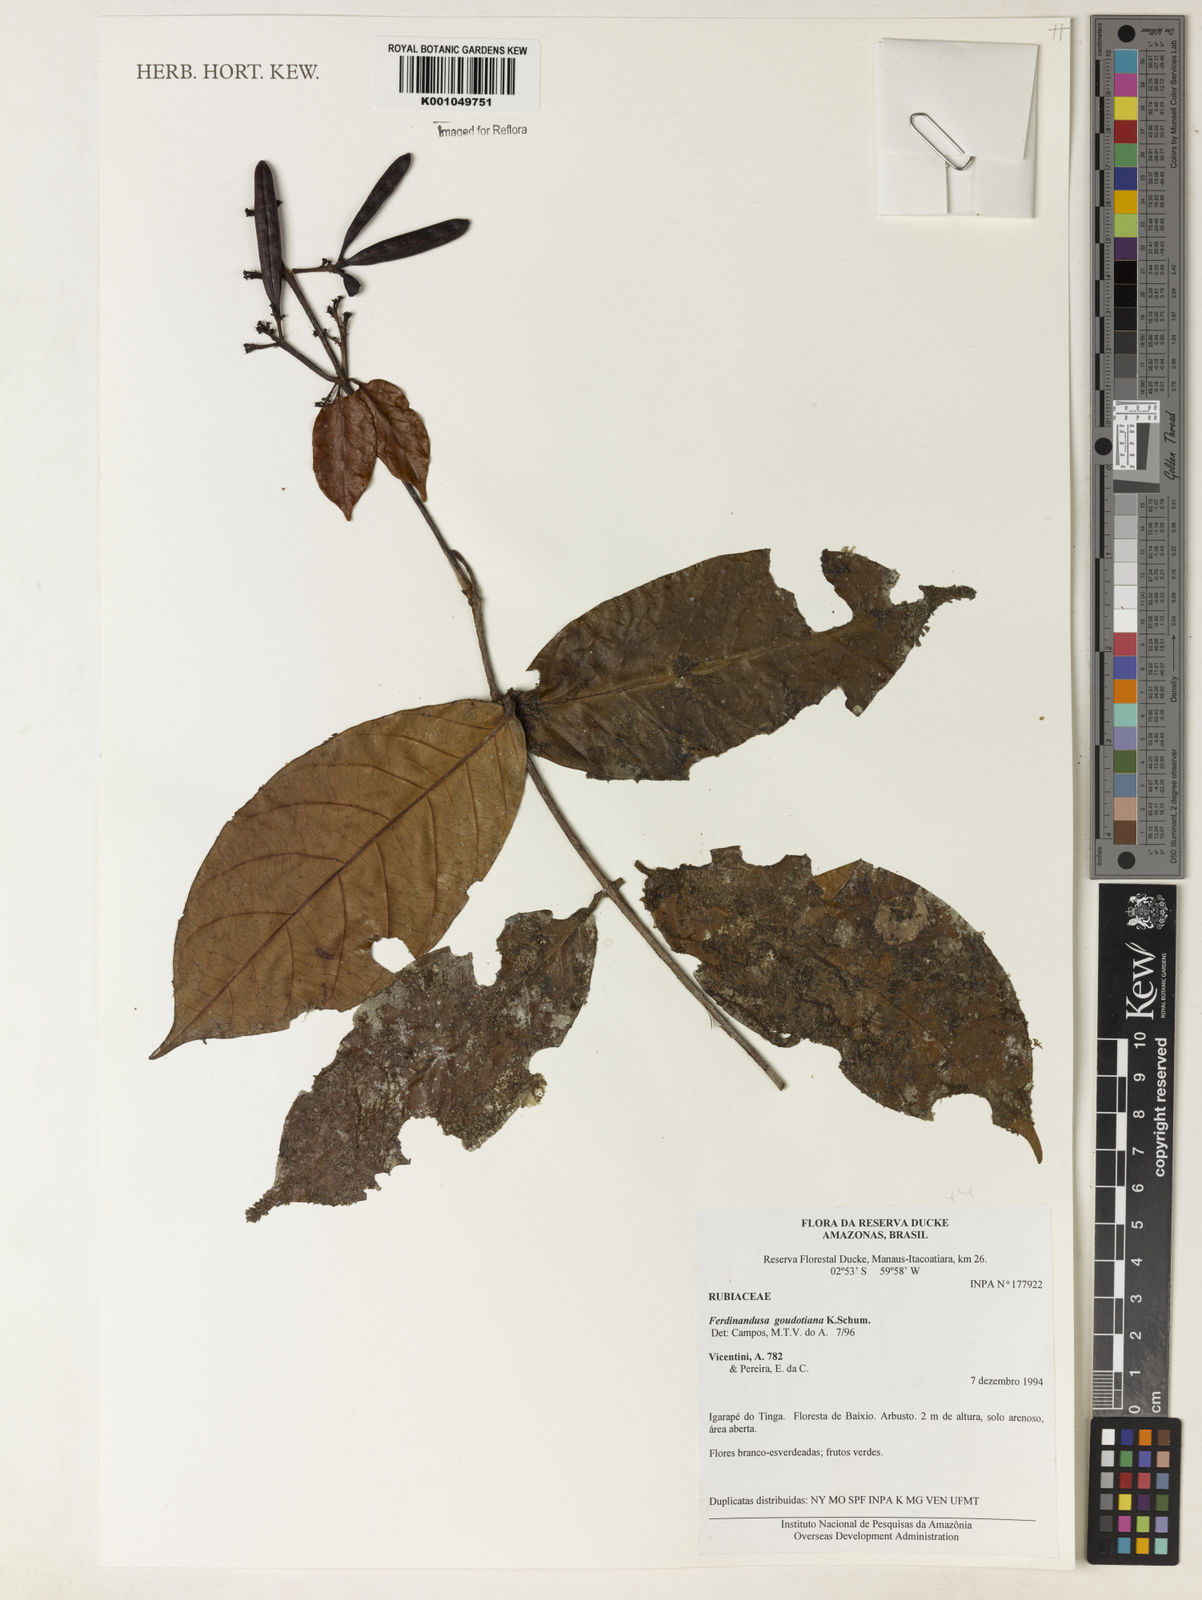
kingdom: Plantae
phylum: Tracheophyta
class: Magnoliopsida
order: Gentianales
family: Rubiaceae
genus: Ferdinandusa
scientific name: Ferdinandusa goudotiana
